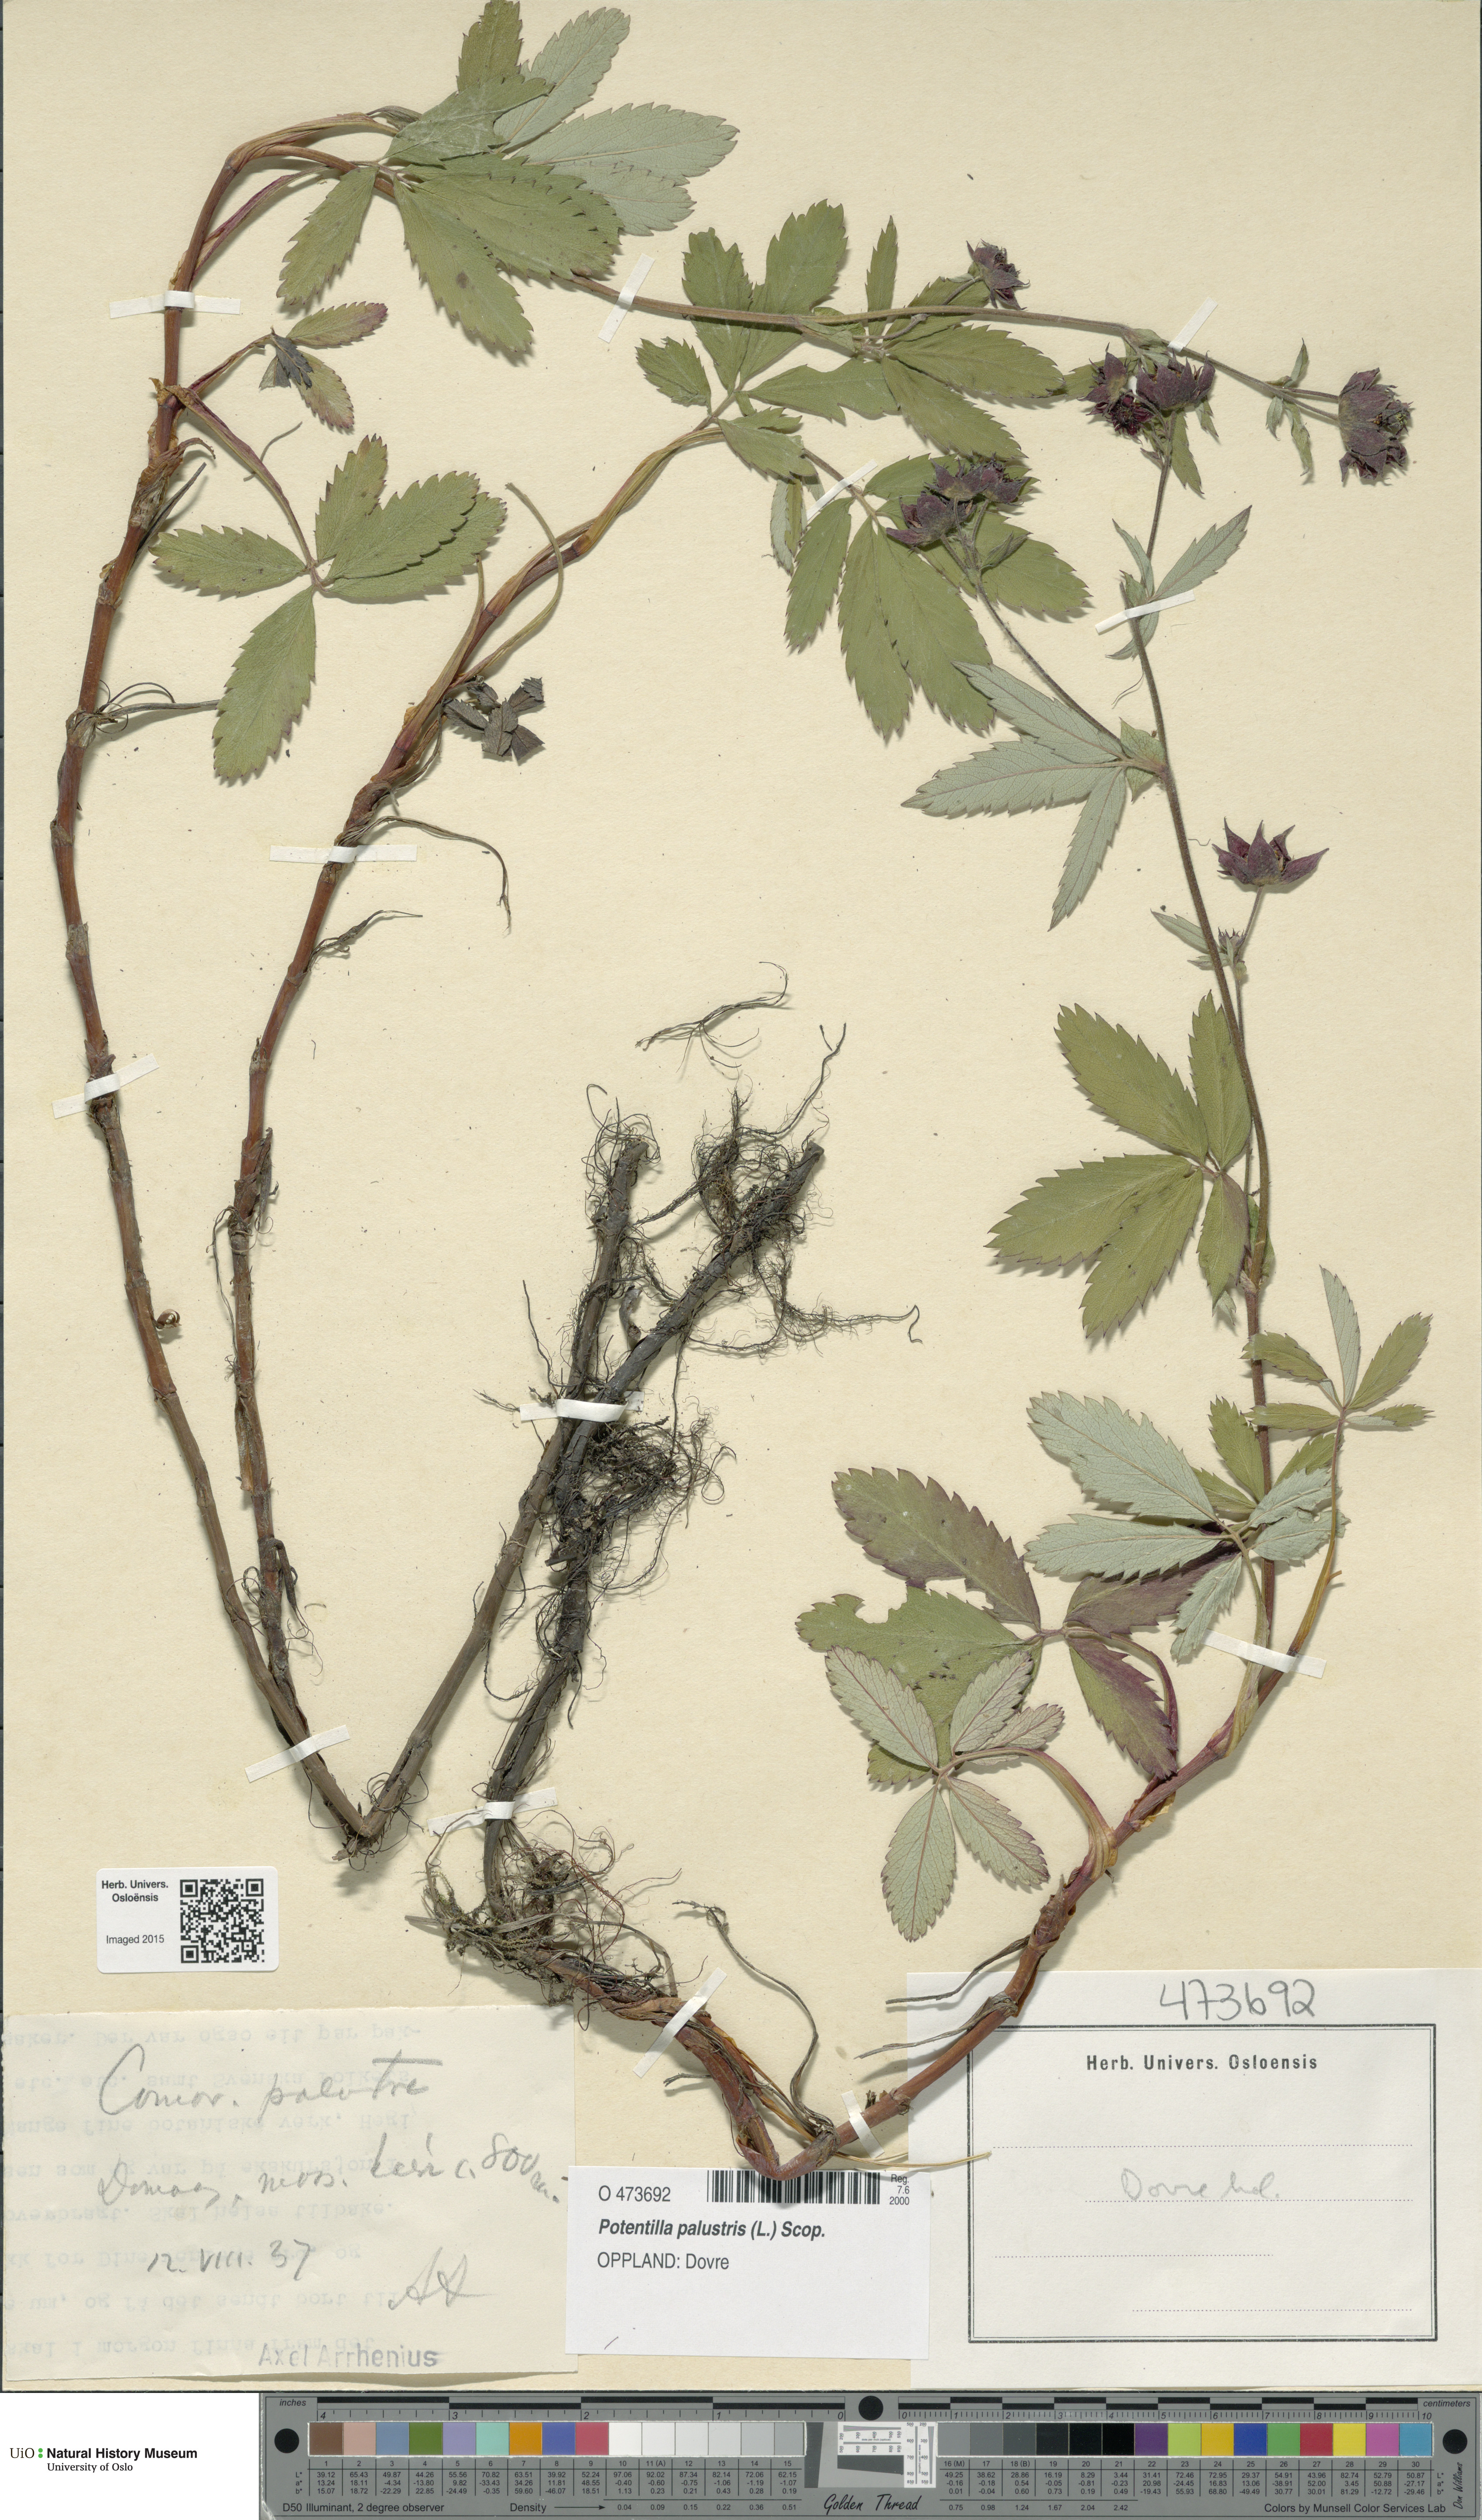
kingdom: Plantae
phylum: Tracheophyta
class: Magnoliopsida
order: Rosales
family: Rosaceae
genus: Comarum
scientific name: Comarum palustre
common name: Marsh cinquefoil
